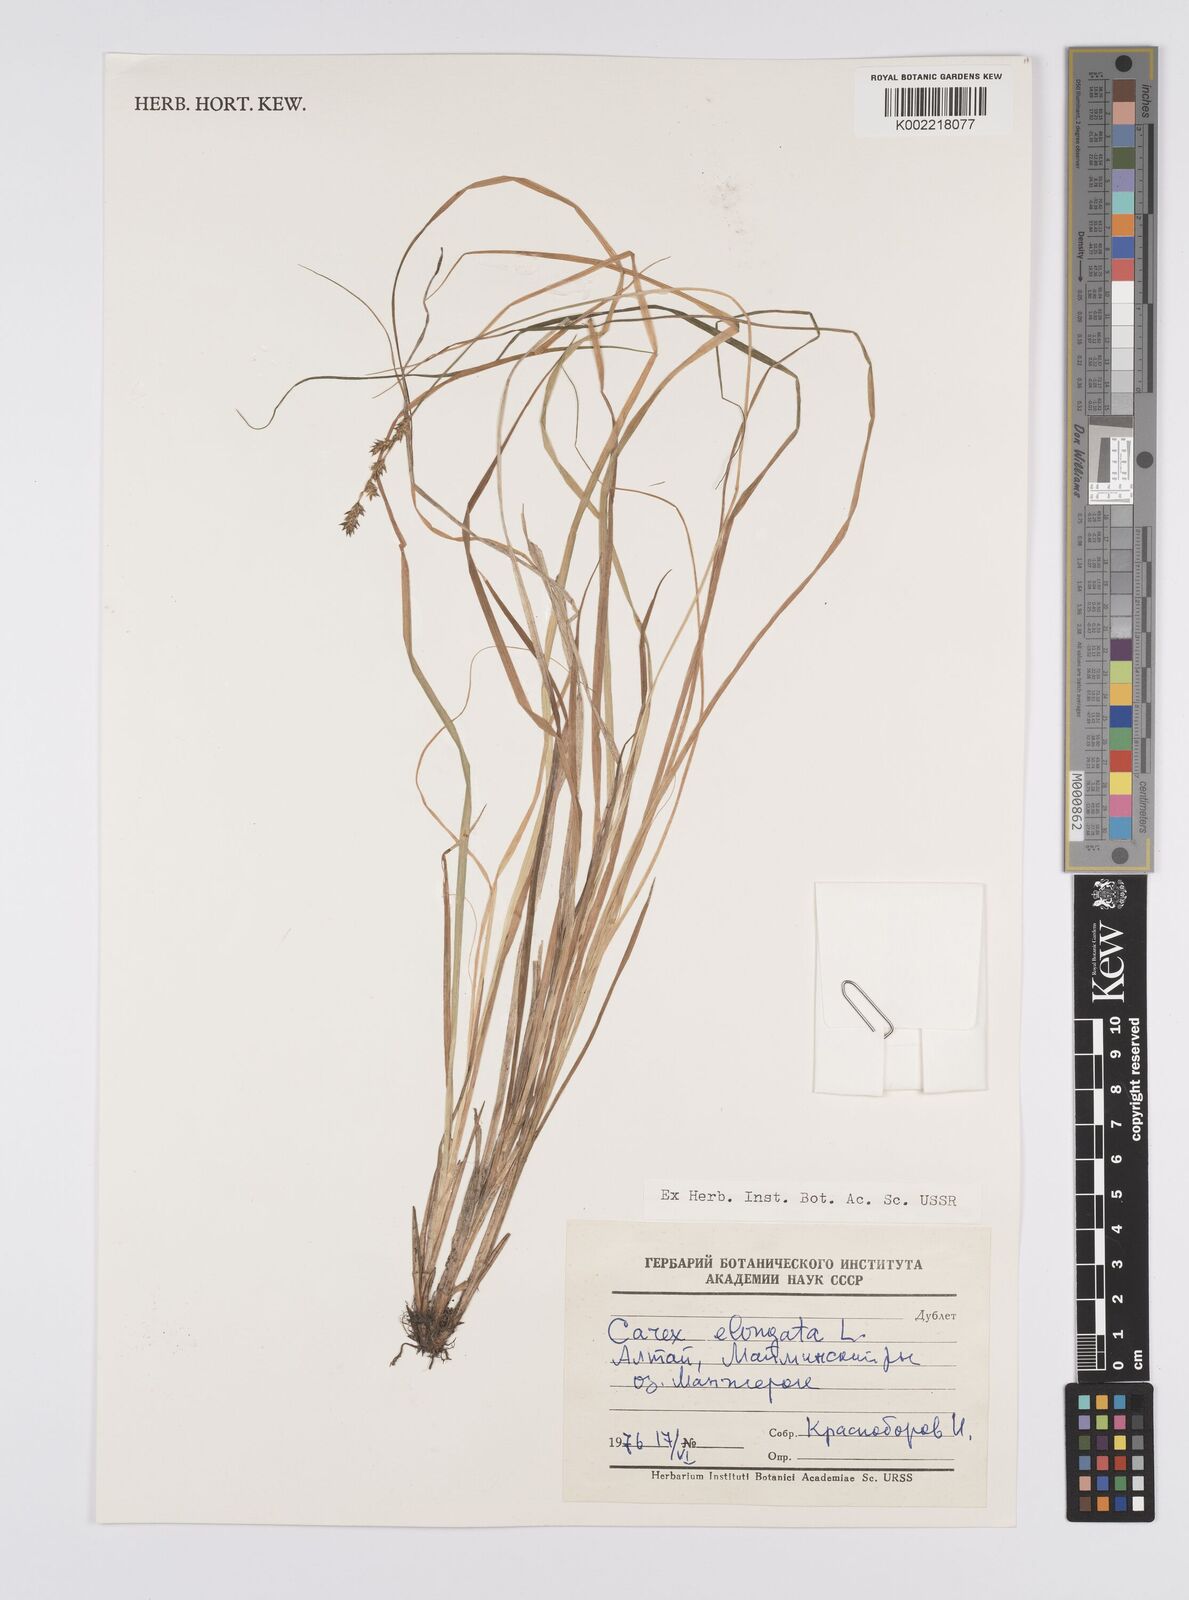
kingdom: Plantae
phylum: Tracheophyta
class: Liliopsida
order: Poales
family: Cyperaceae
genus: Carex
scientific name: Carex elongata
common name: Elongated sedge
